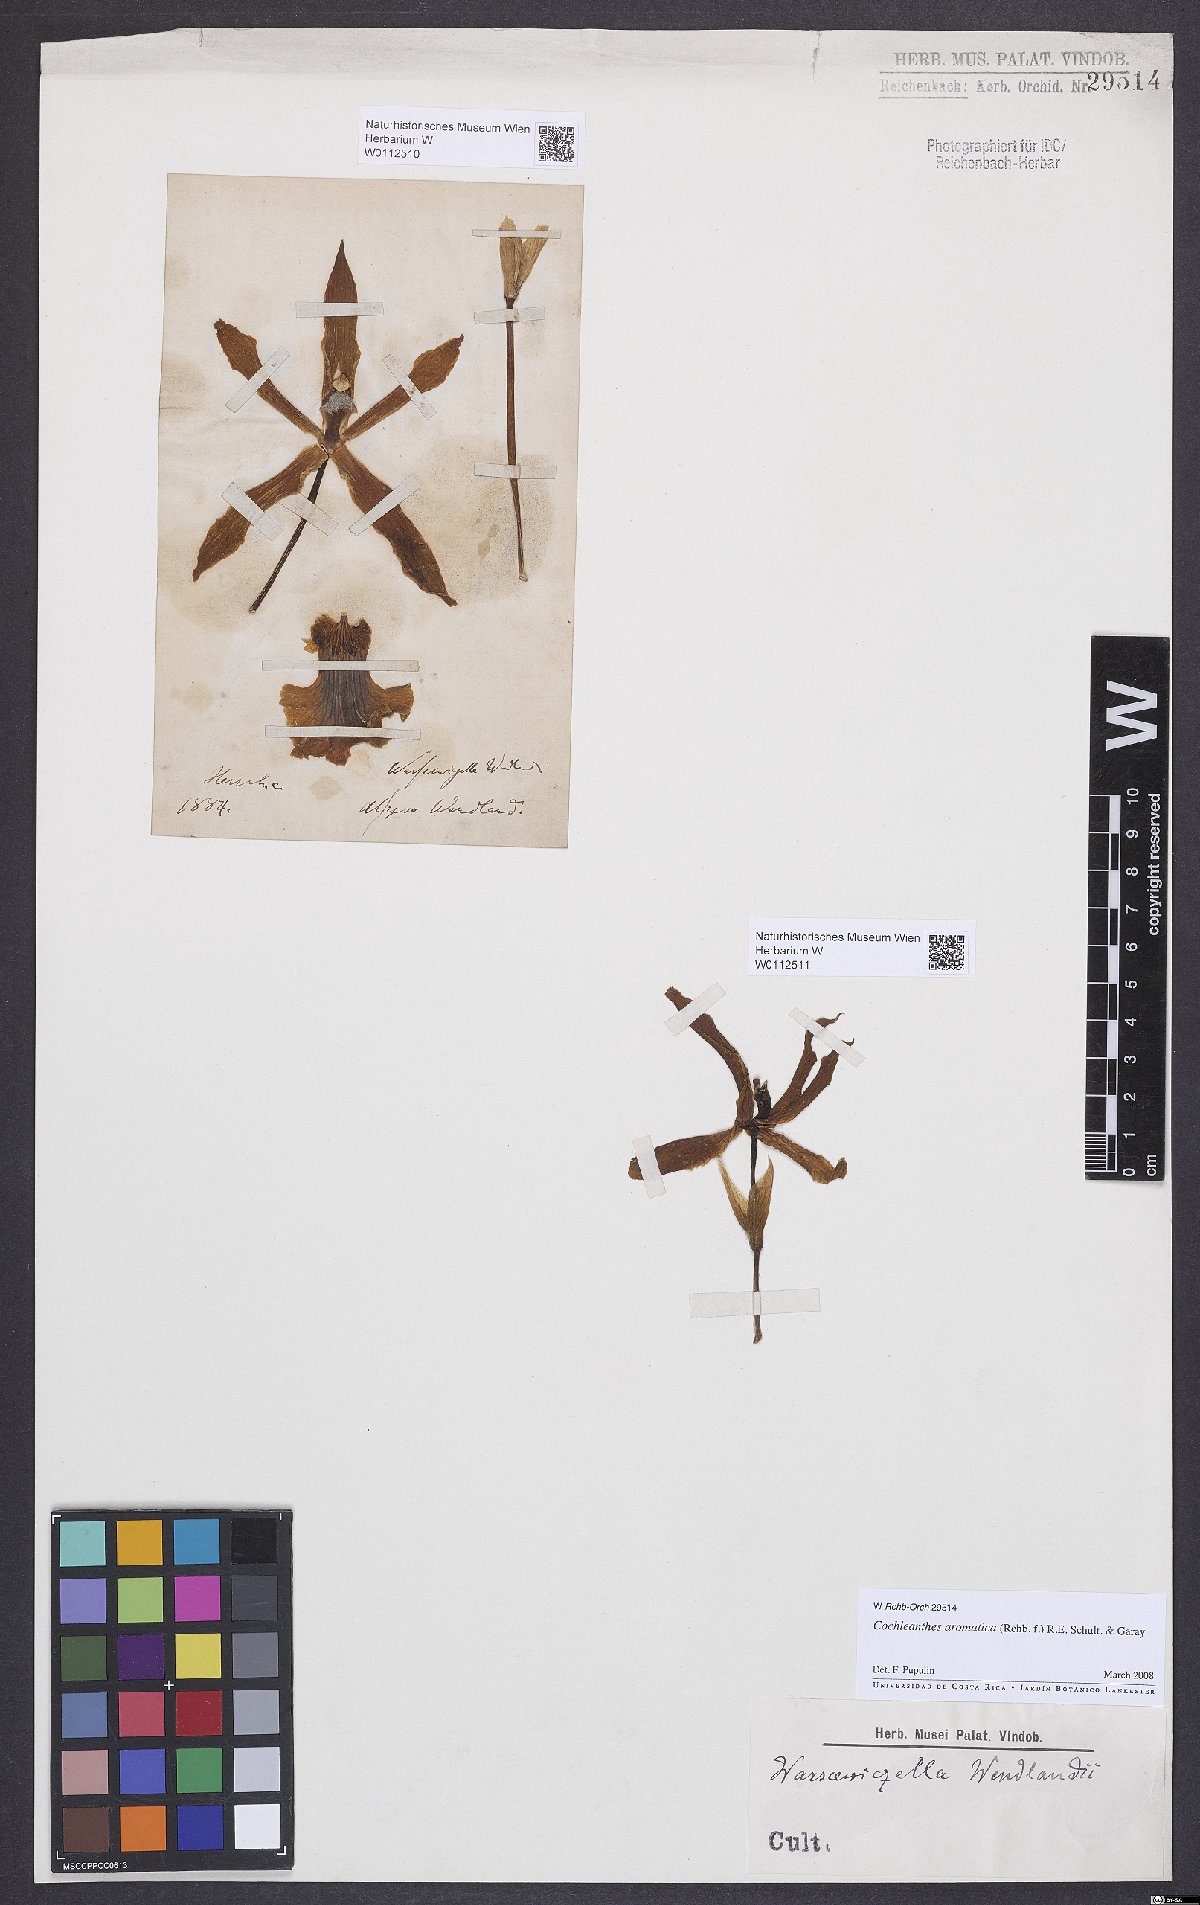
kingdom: Plantae
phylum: Tracheophyta
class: Liliopsida
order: Asparagales
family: Orchidaceae
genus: Cochleanthes
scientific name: Cochleanthes aromatica
